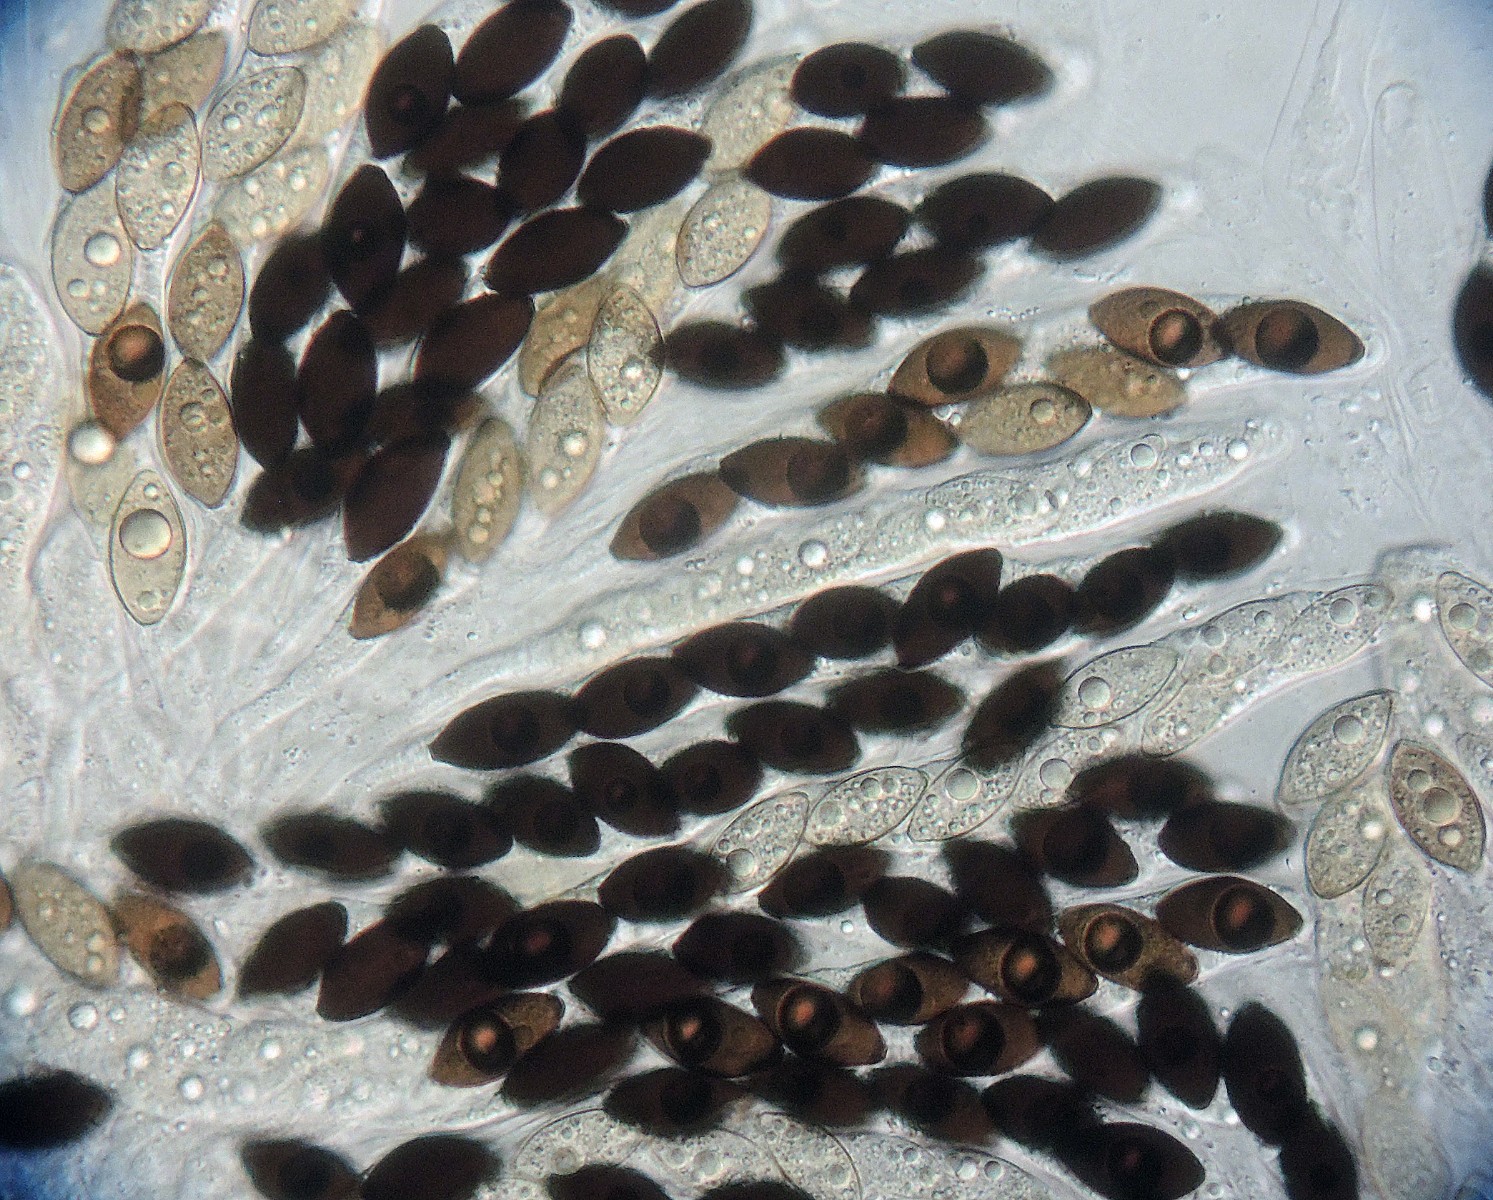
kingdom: Fungi
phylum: Ascomycota
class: Sordariomycetes
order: Sordariales
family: Neoschizotheciaceae
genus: Neoschizothecium
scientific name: Neoschizothecium conicum
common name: kegle-kernesvamp
